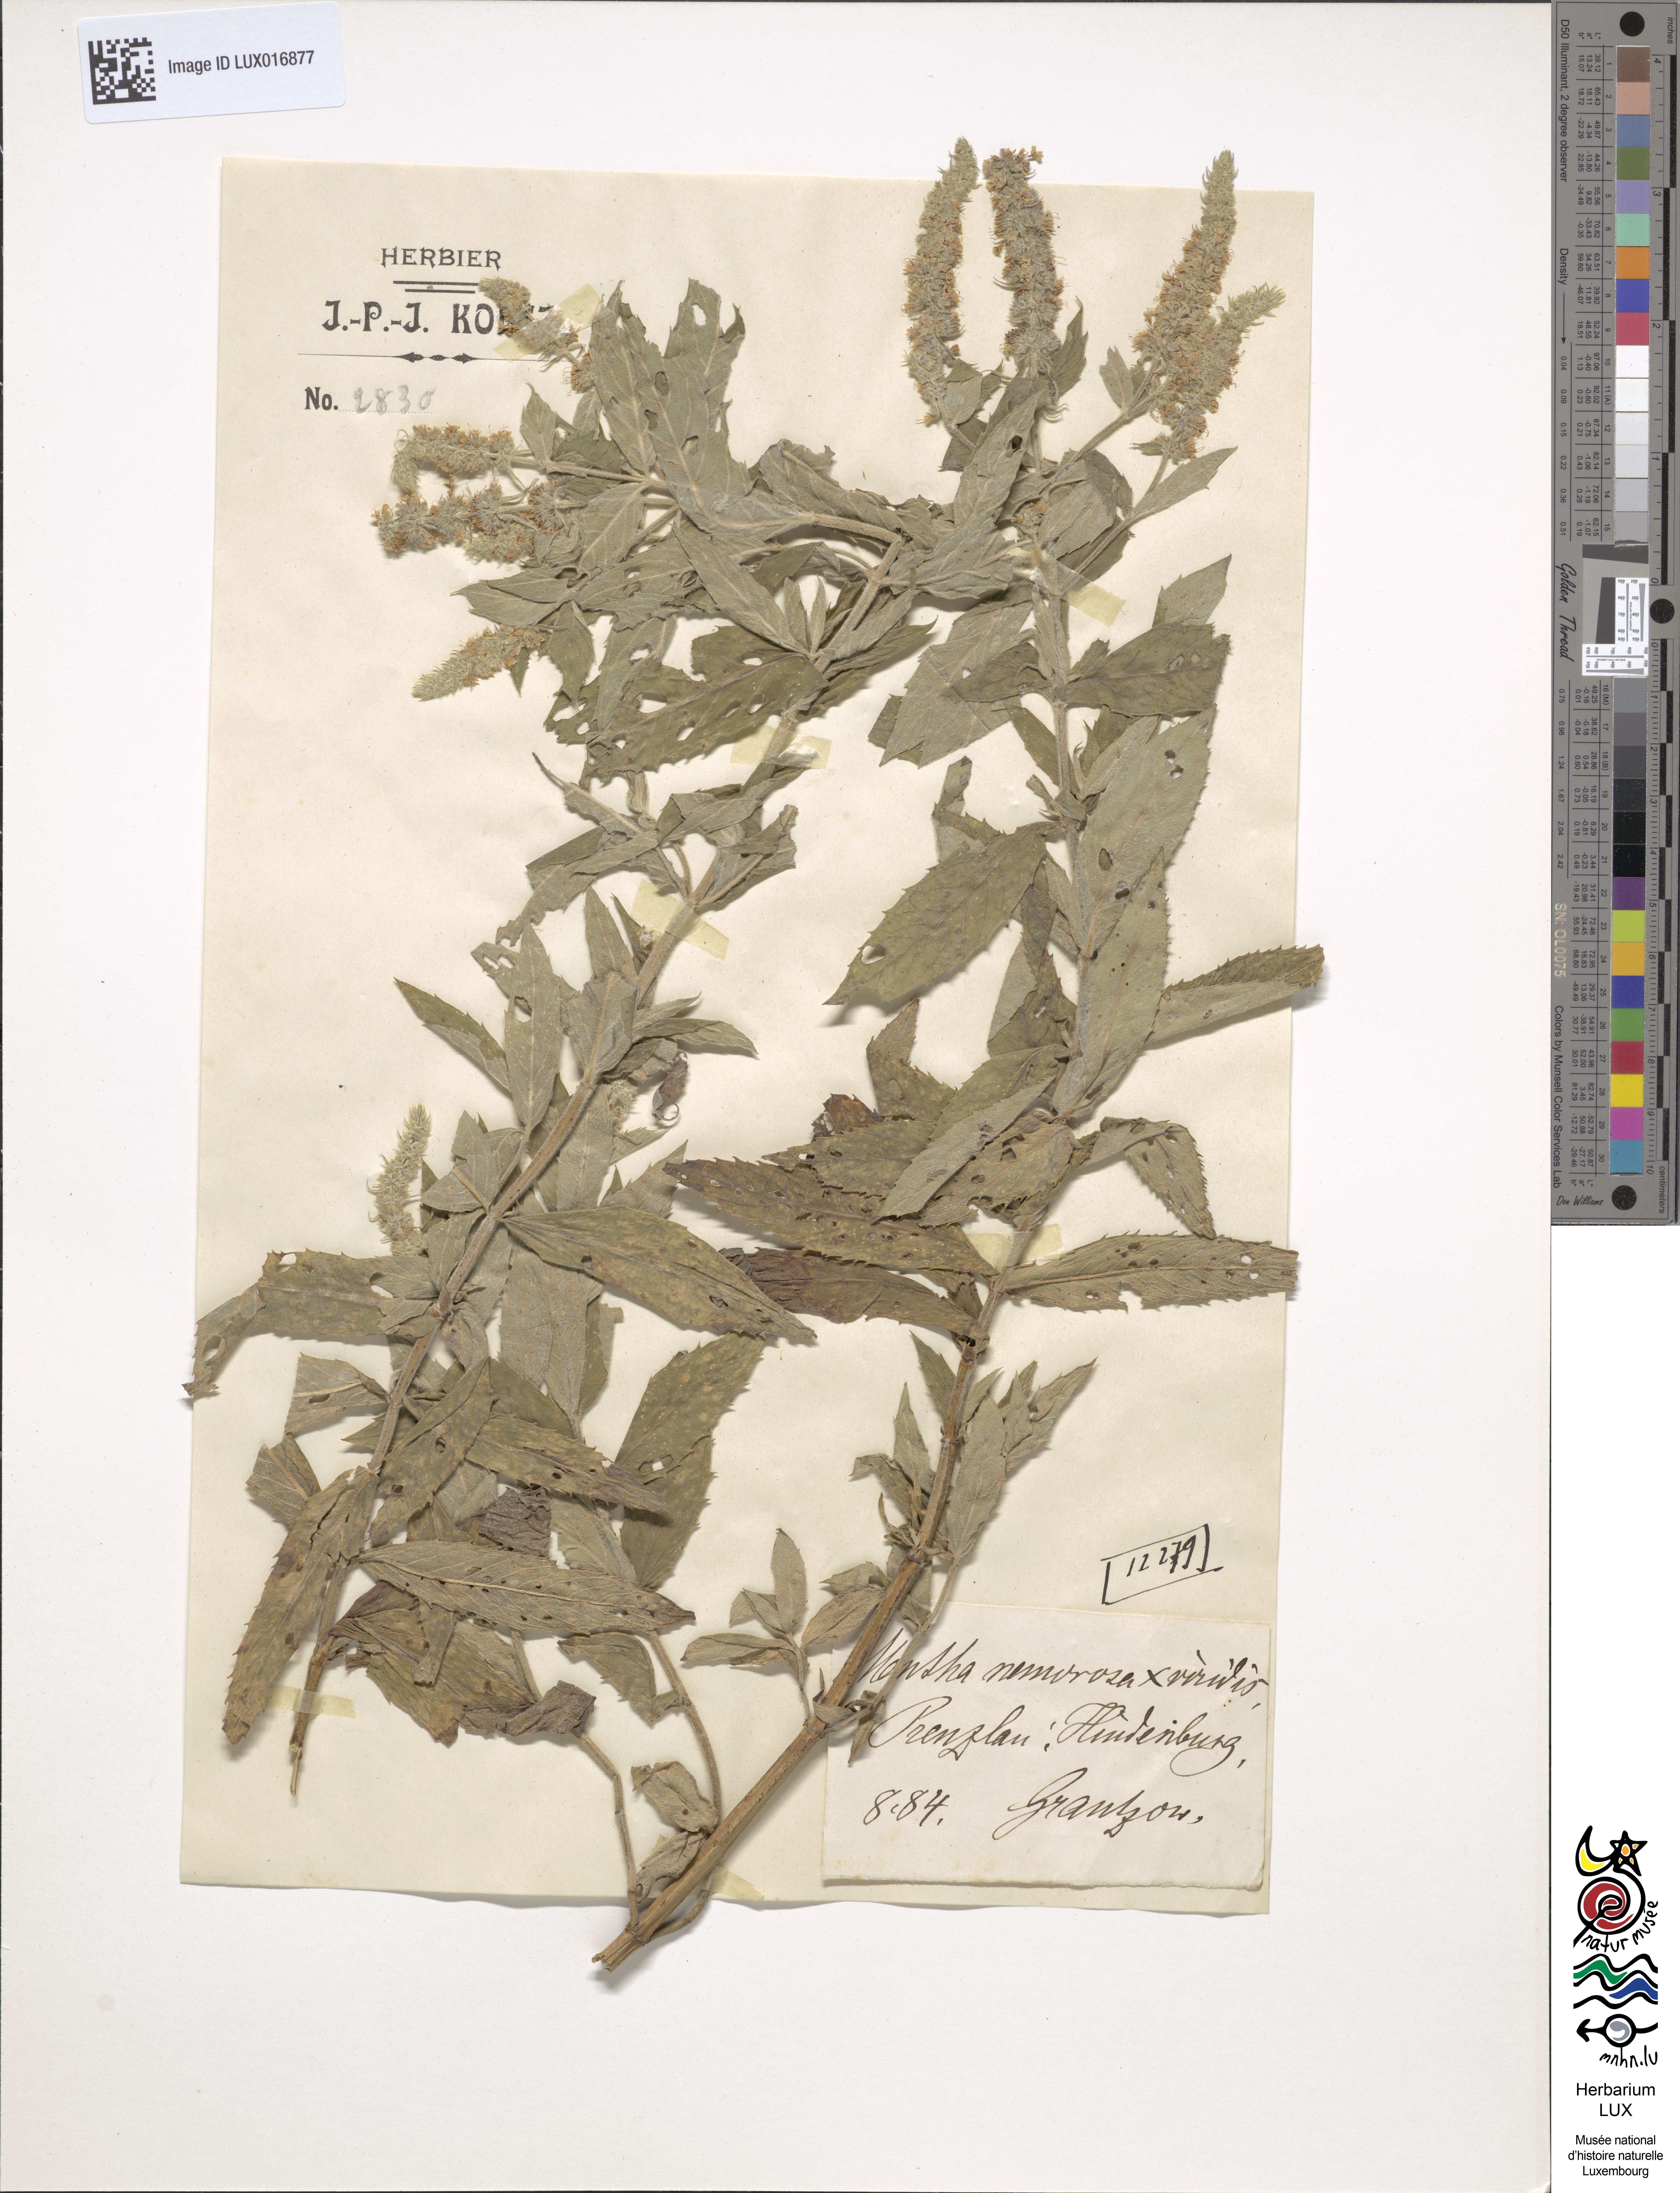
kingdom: Plantae
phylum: Tracheophyta
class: Magnoliopsida
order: Lamiales
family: Lamiaceae
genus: Mentha
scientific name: Mentha rotundifolia
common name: Bigleaf mint
